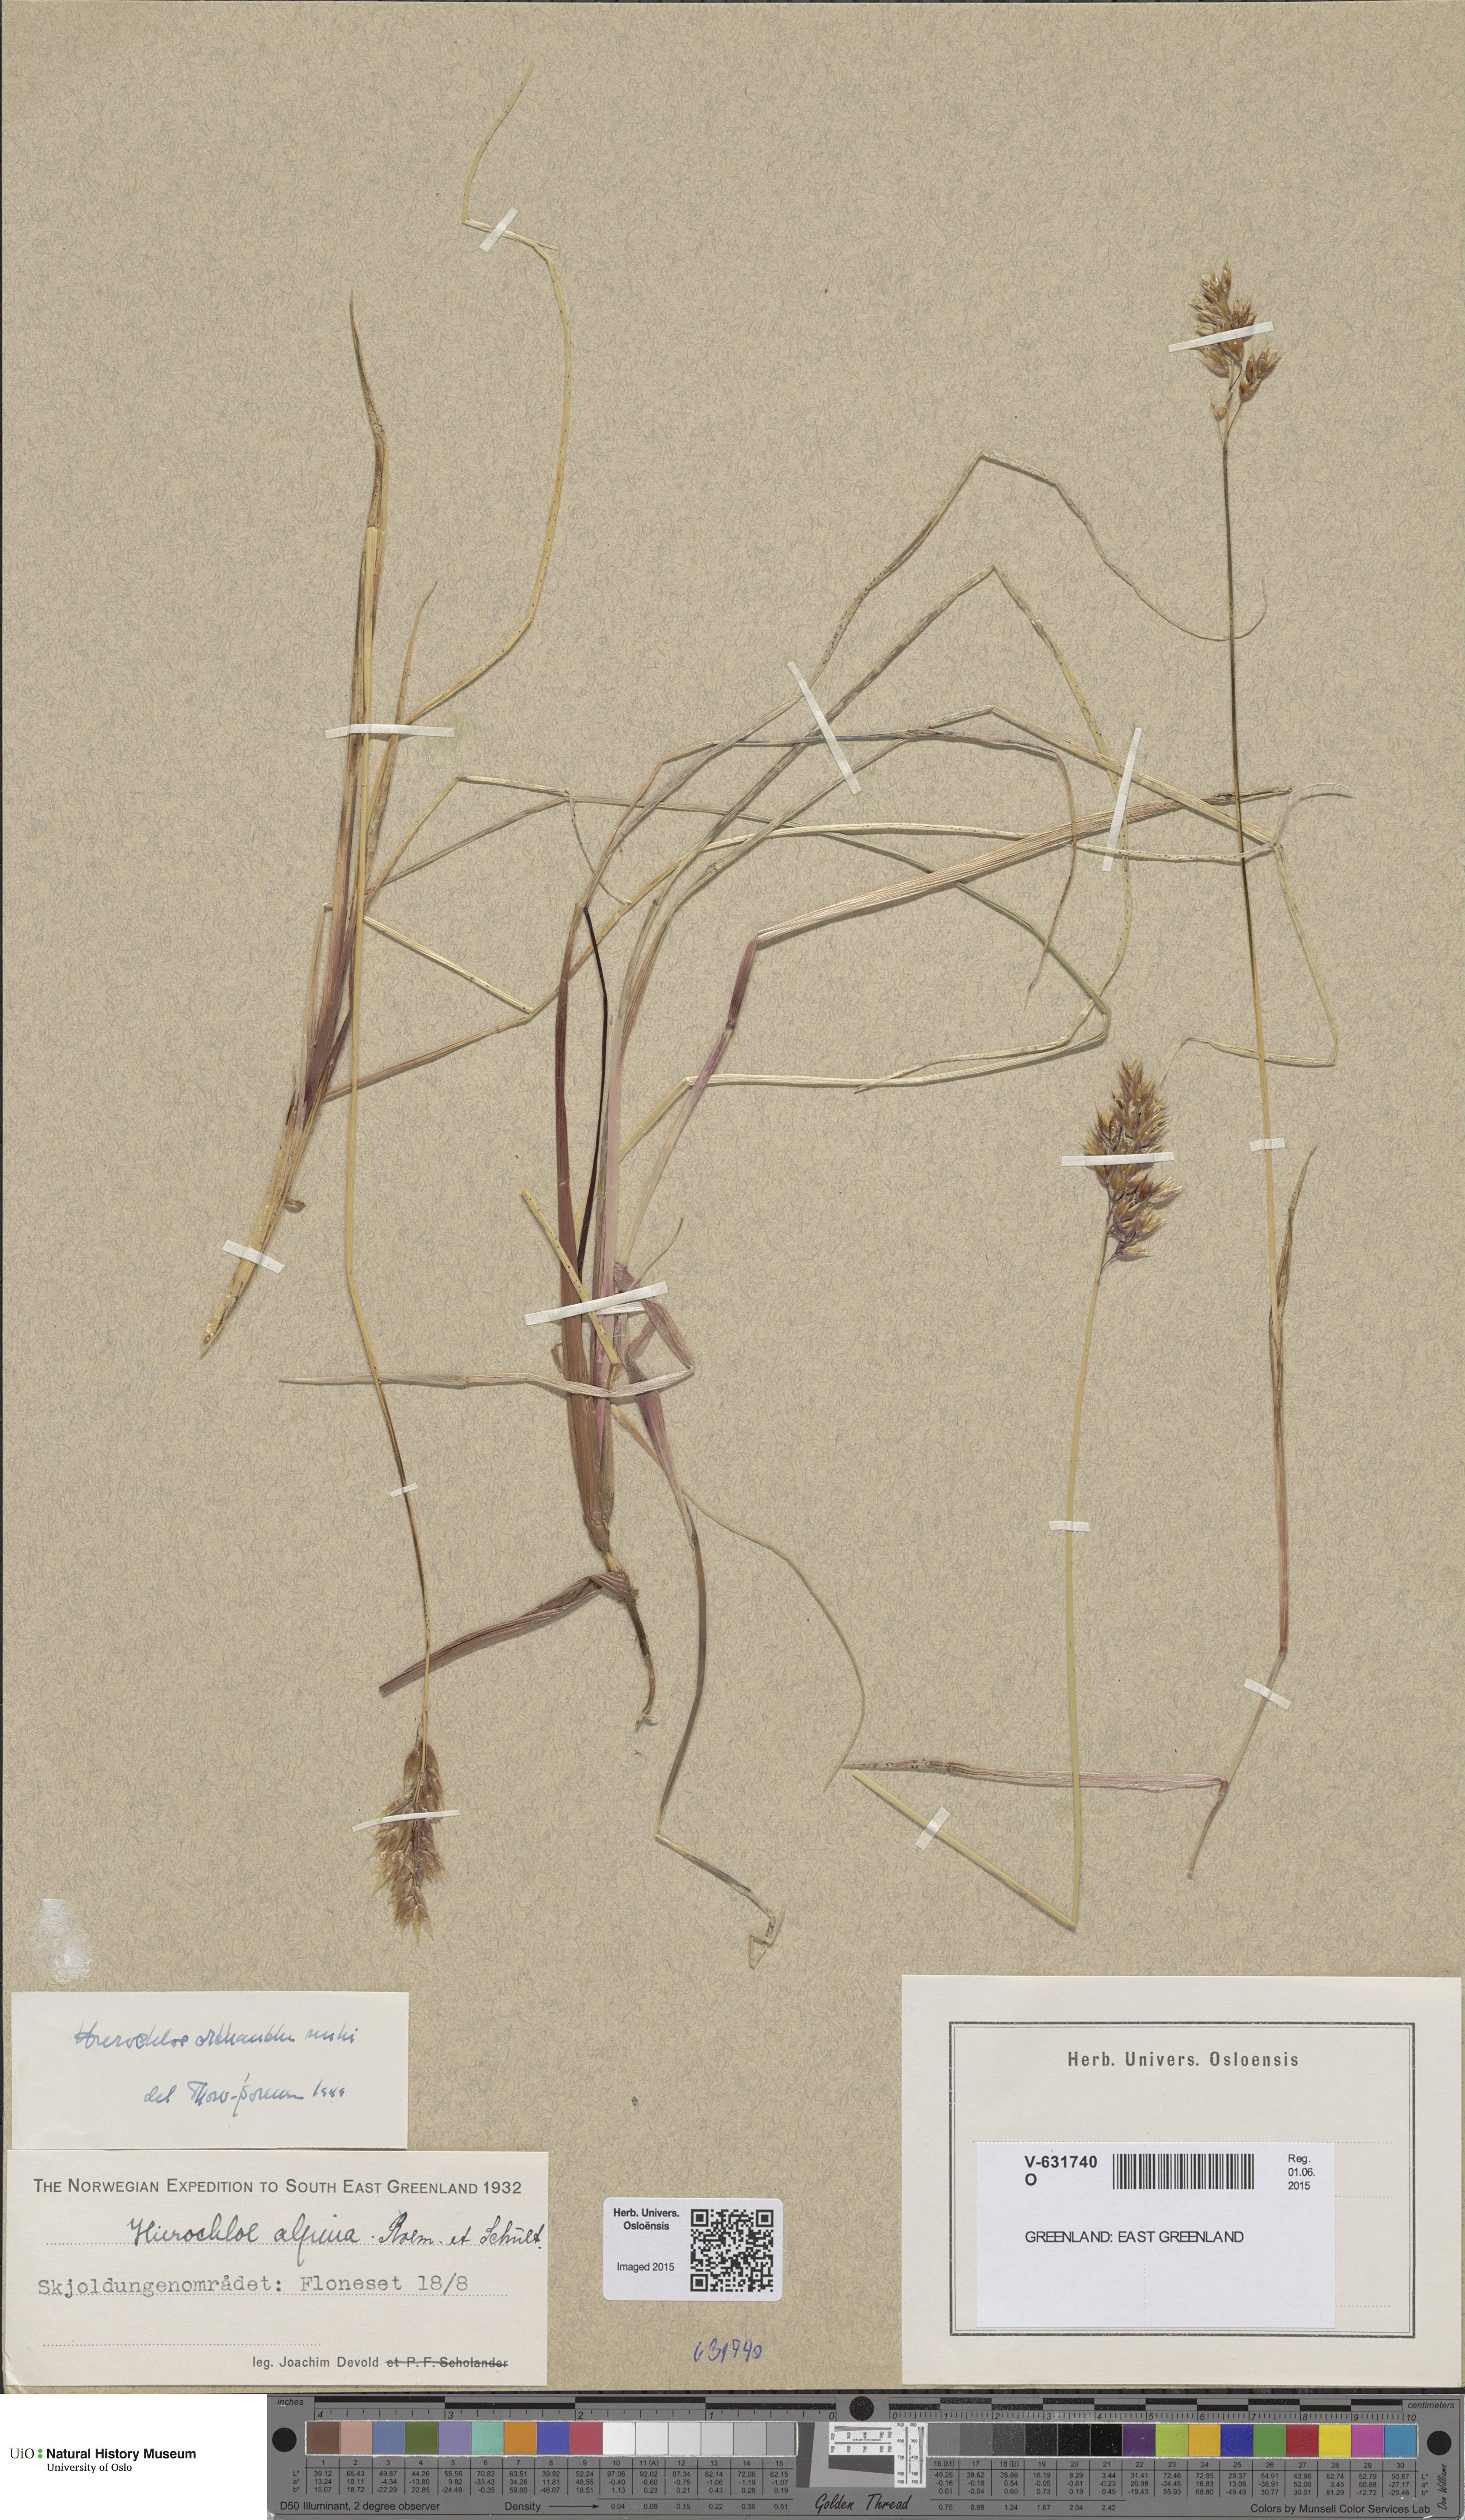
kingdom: Plantae
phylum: Tracheophyta
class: Liliopsida
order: Poales
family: Poaceae
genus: Anthoxanthum
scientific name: Anthoxanthum monticola
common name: Alpine sweetgrass
